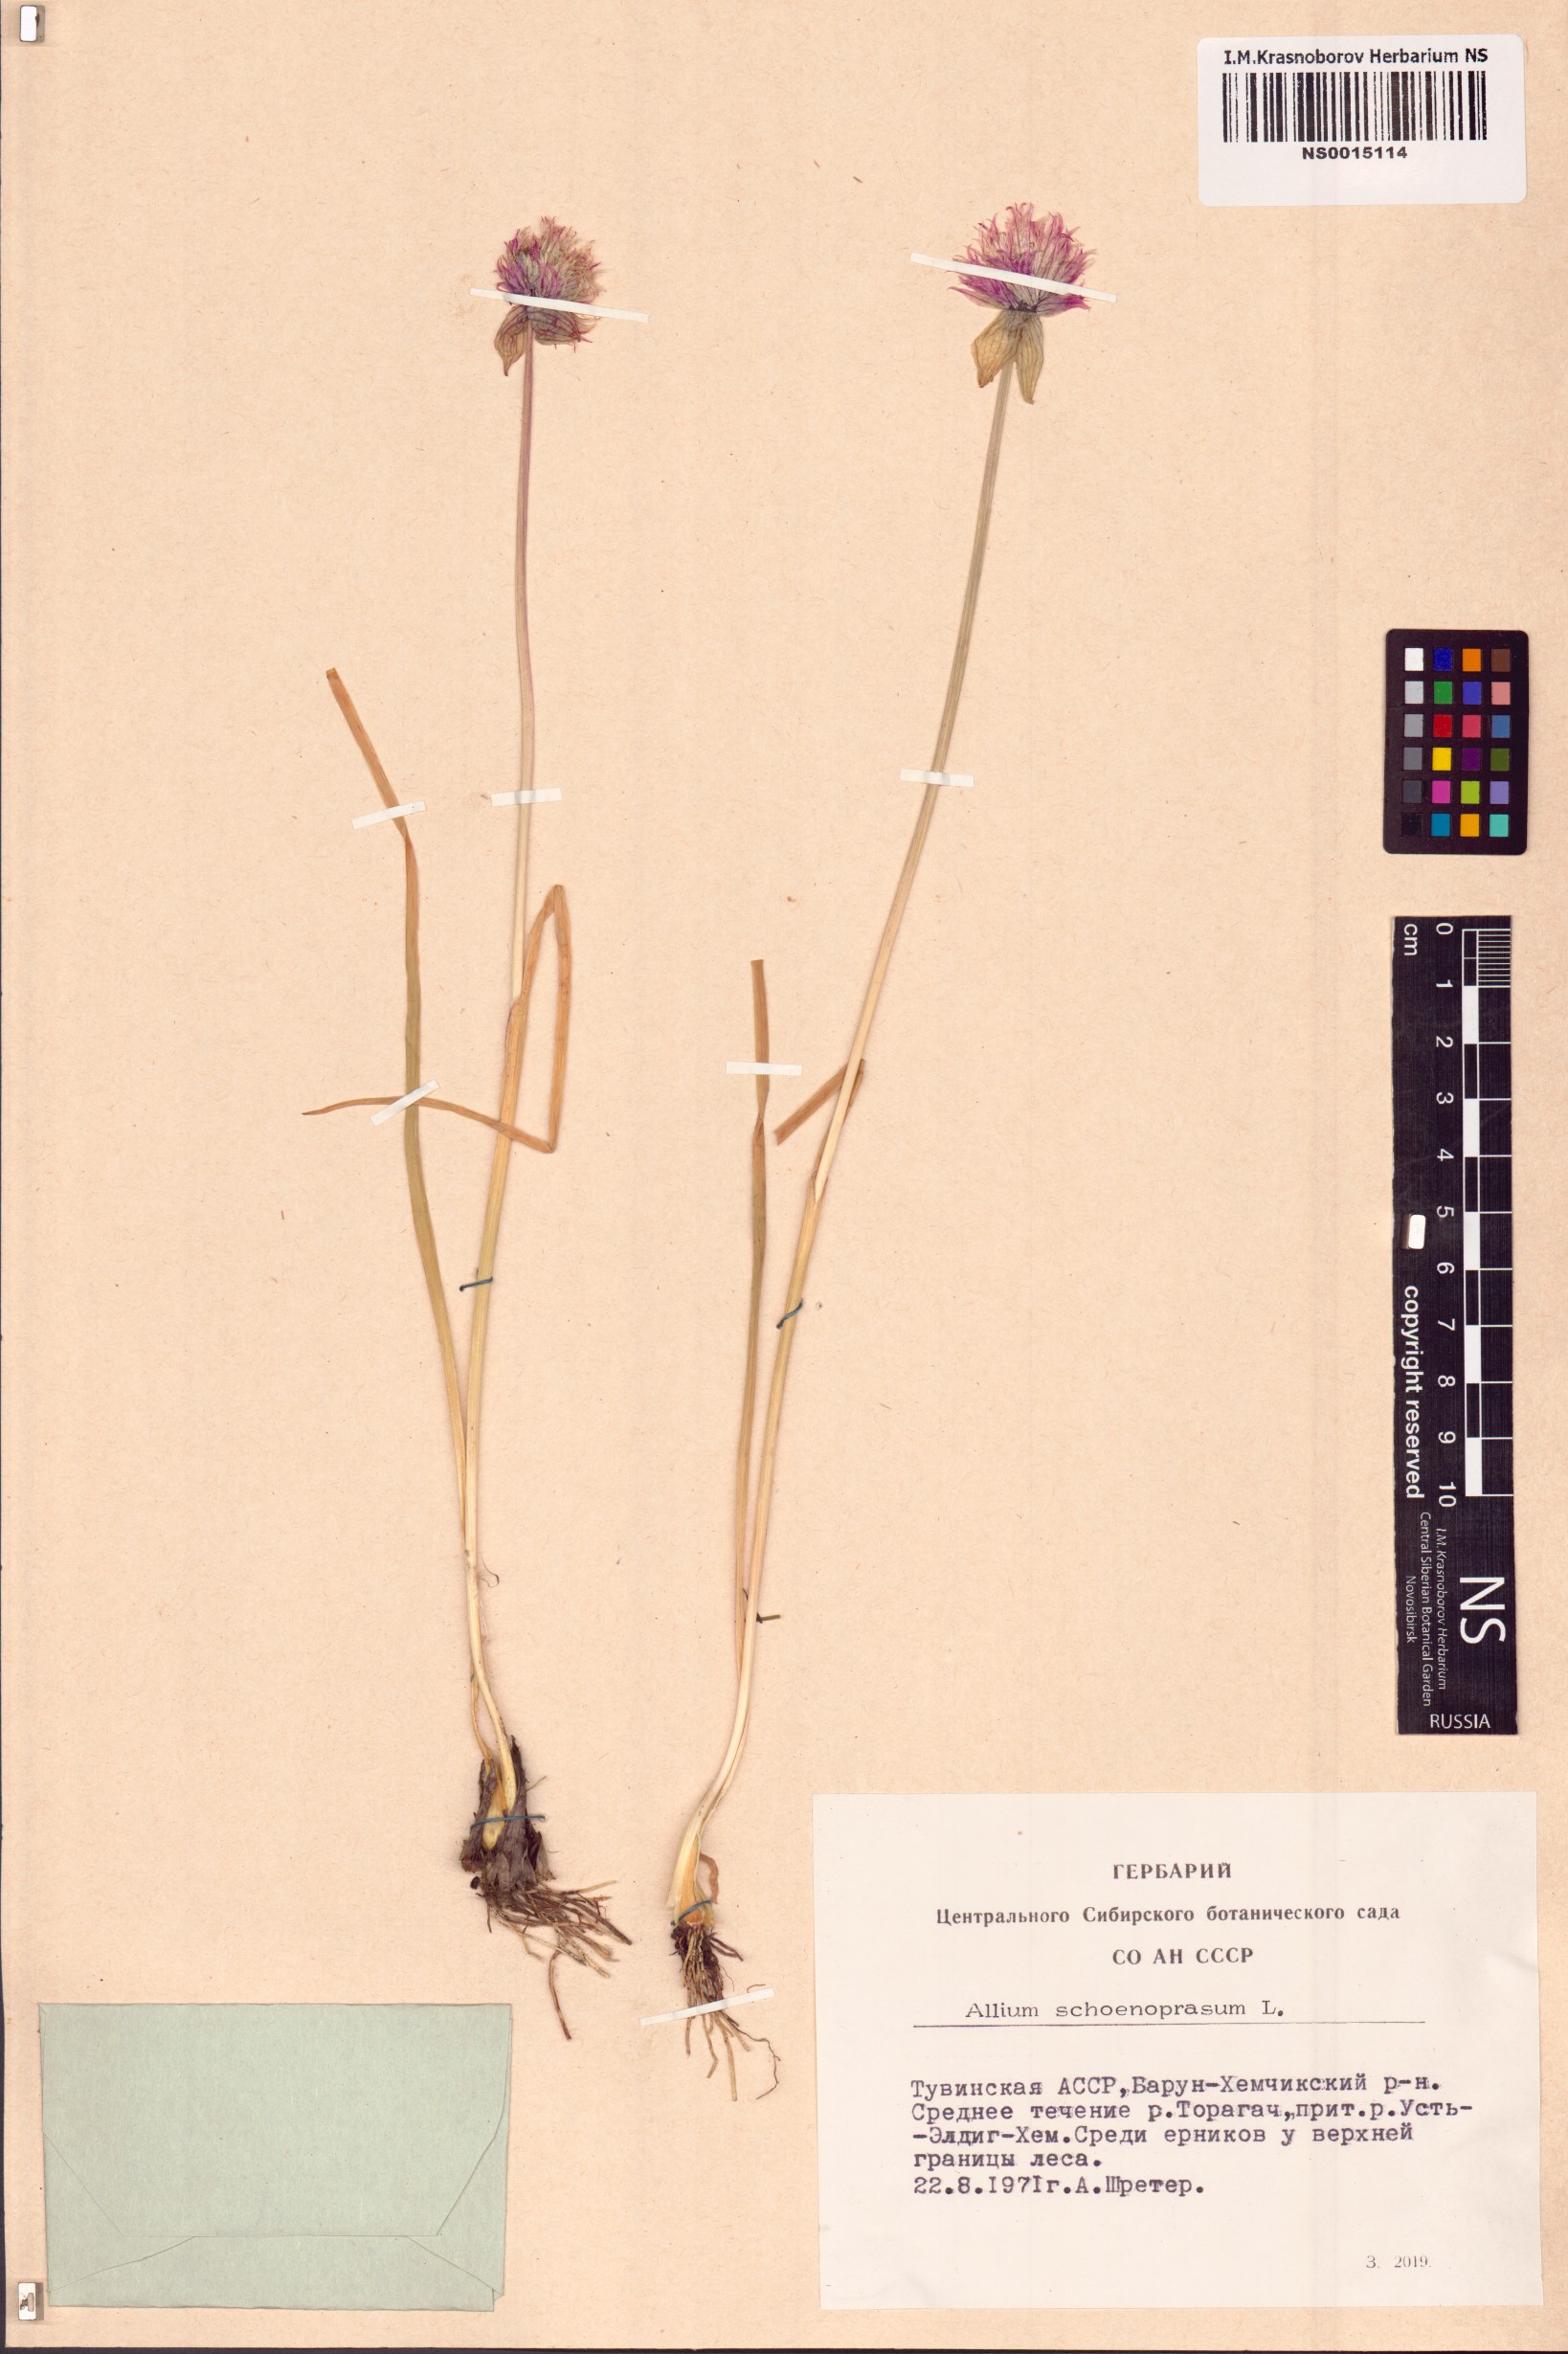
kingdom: Plantae
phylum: Tracheophyta
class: Liliopsida
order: Asparagales
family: Amaryllidaceae
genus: Allium
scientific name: Allium schoenoprasum
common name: Chives
